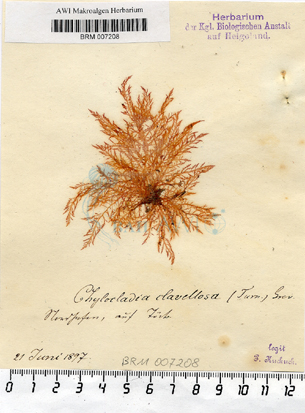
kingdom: Plantae
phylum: Rhodophyta
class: Florideophyceae
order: Rhodymeniales
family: Lomentariaceae
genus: Lomentaria
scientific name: Lomentaria clavellosa
